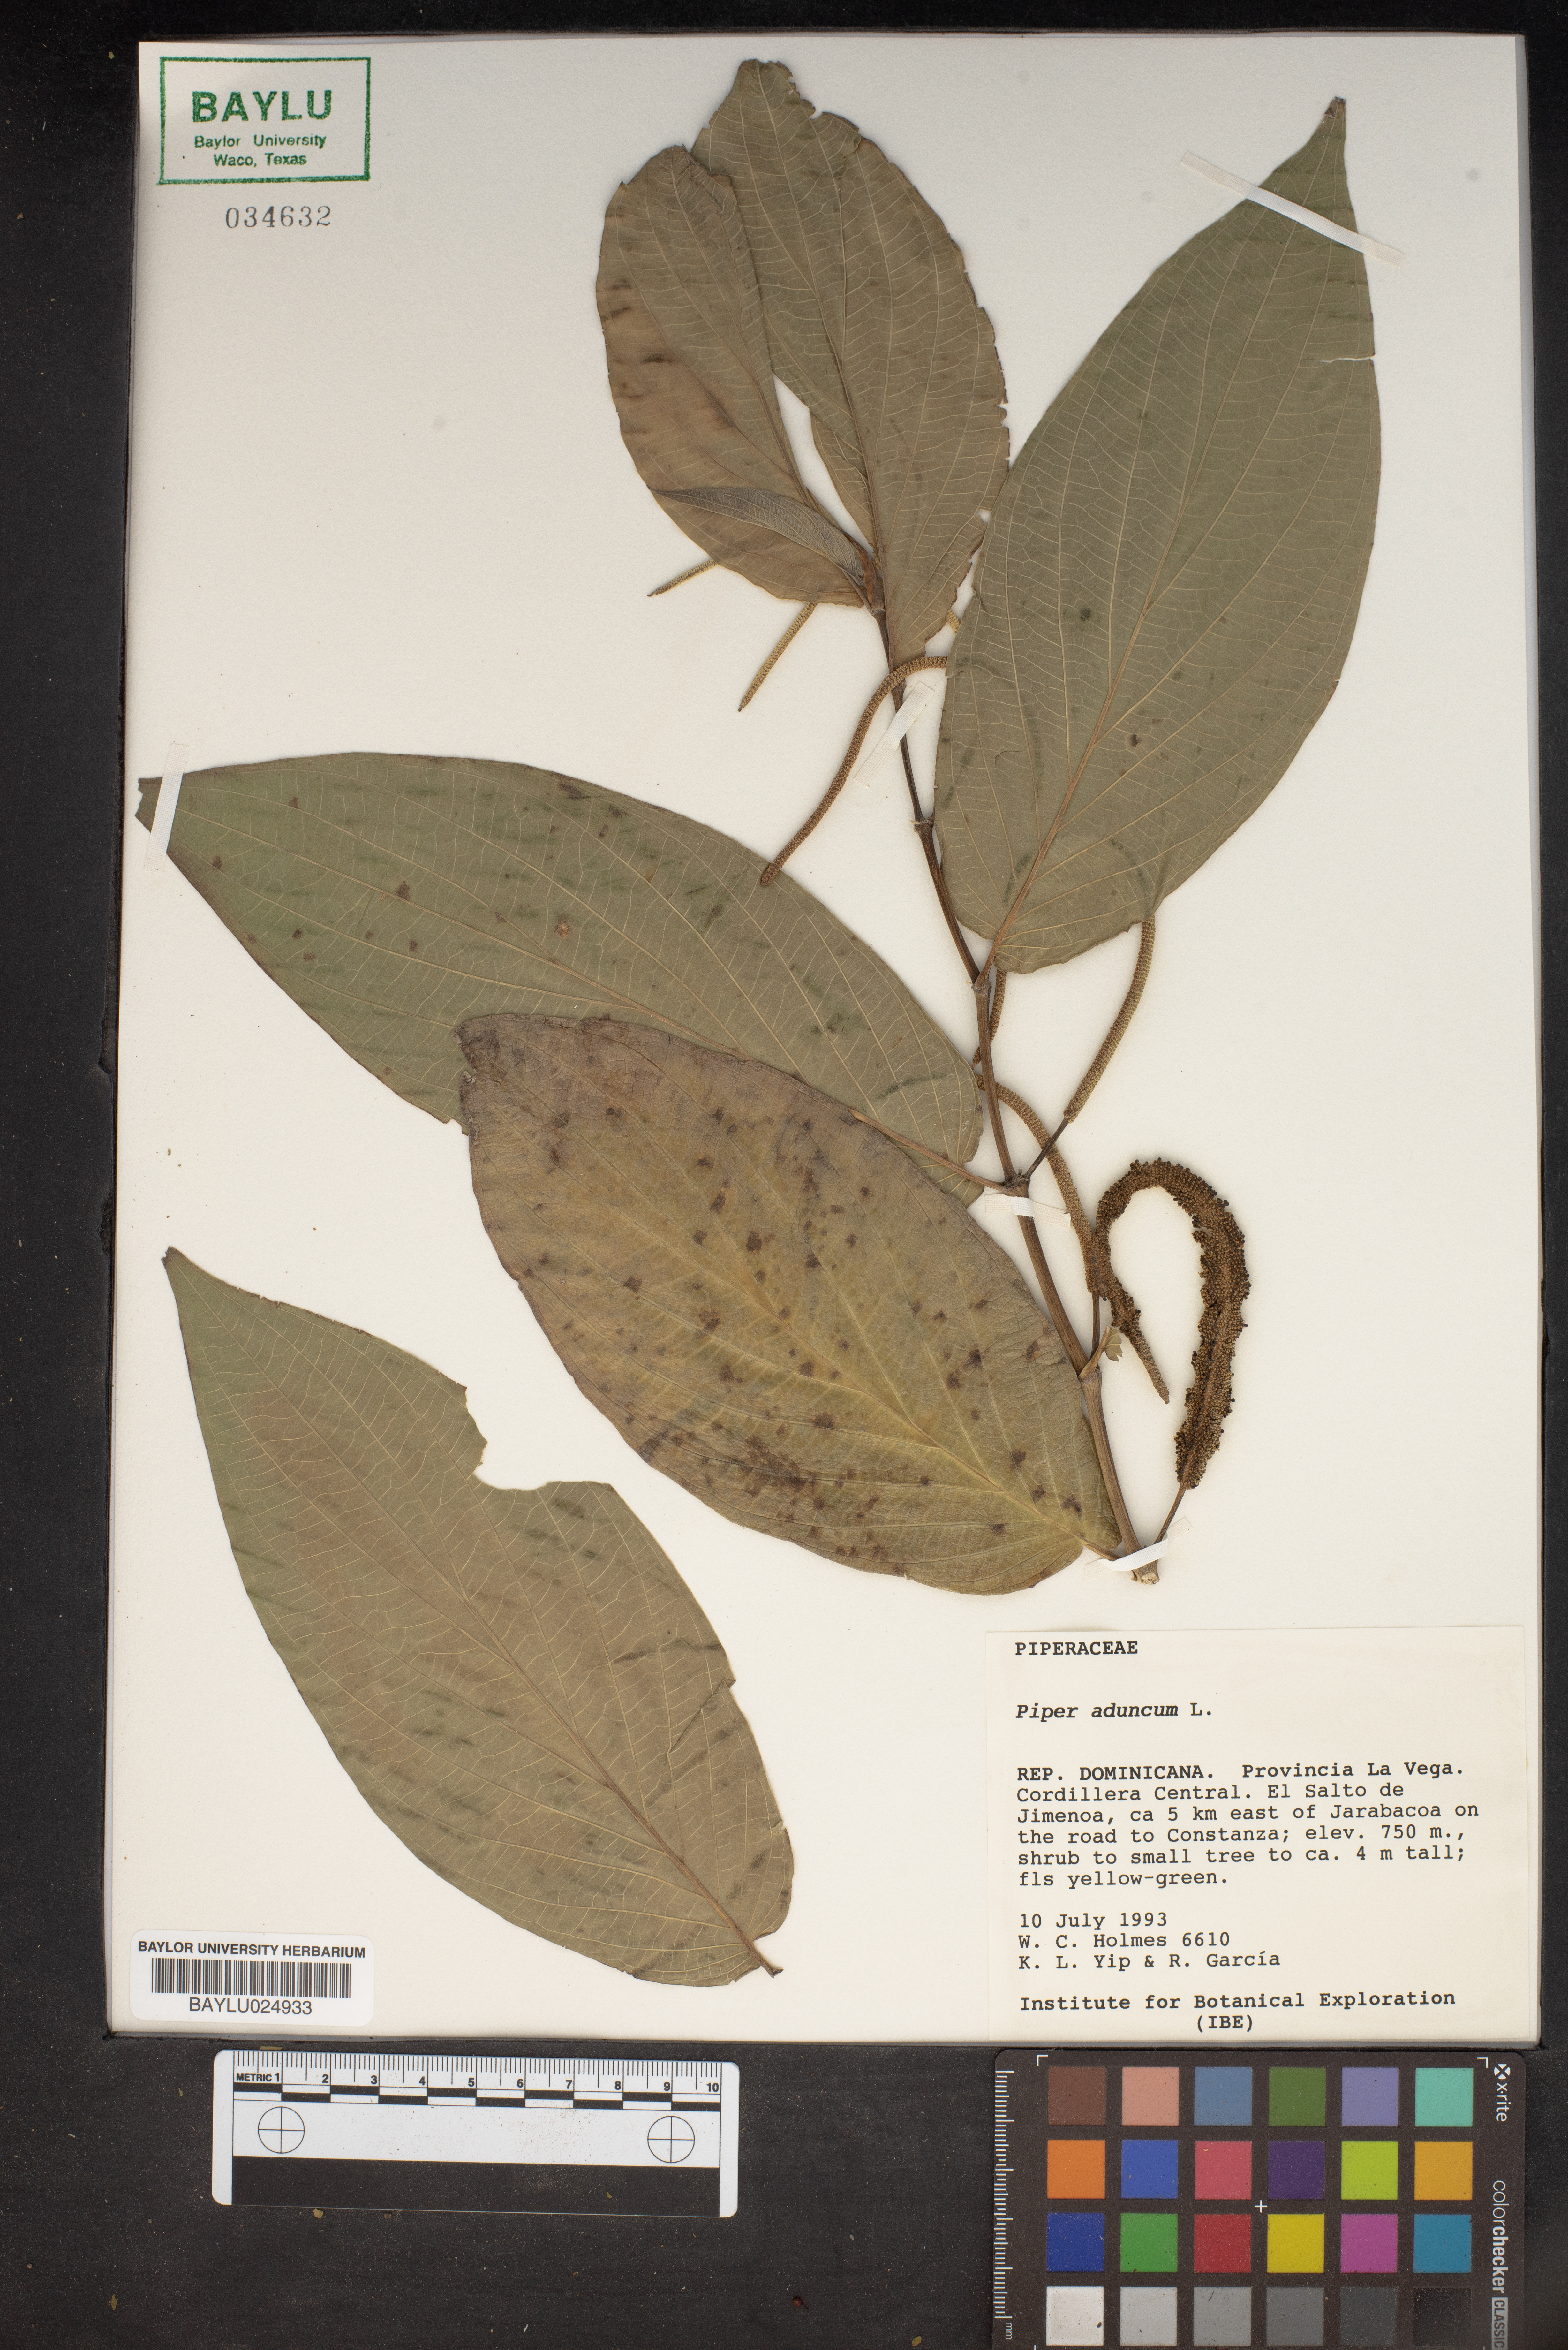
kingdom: Plantae
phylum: Tracheophyta
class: Magnoliopsida
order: Piperales
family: Piperaceae
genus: Piper
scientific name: Piper aduncum
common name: Spiked pepper
